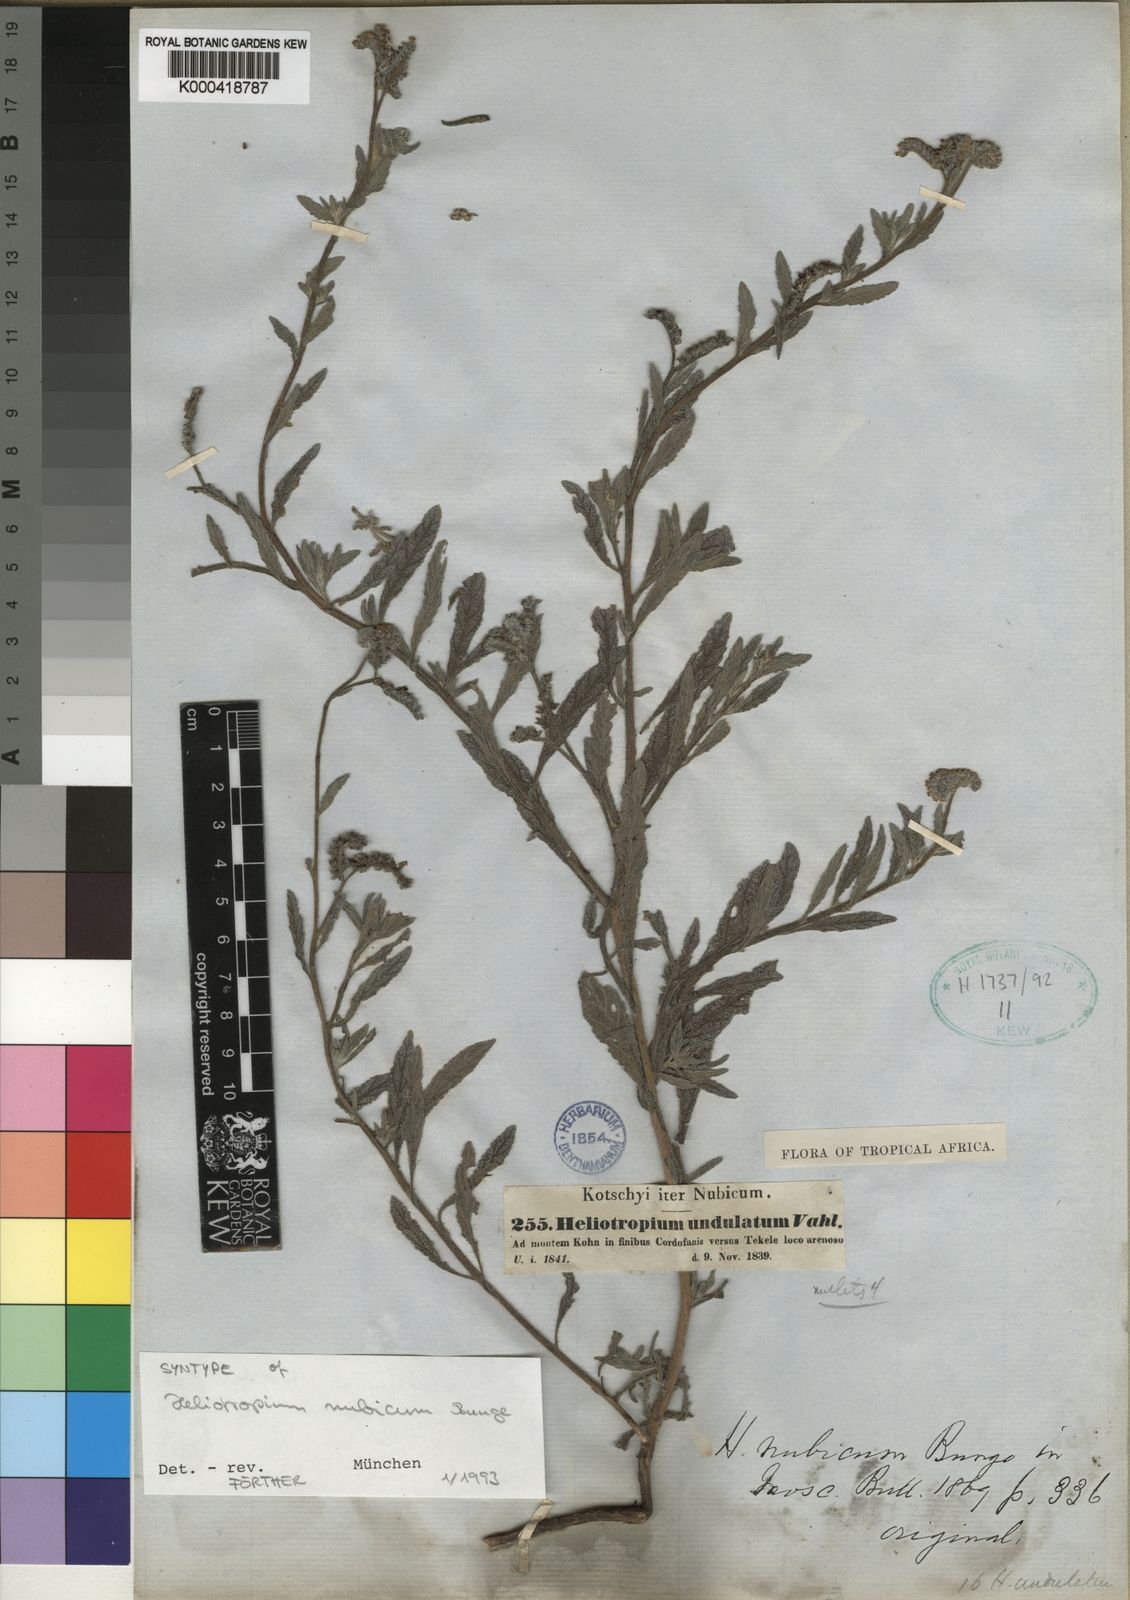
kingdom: Plantae
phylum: Tracheophyta
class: Magnoliopsida
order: Boraginales
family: Heliotropiaceae
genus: Heliotropium
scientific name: Heliotropium bacciferum
